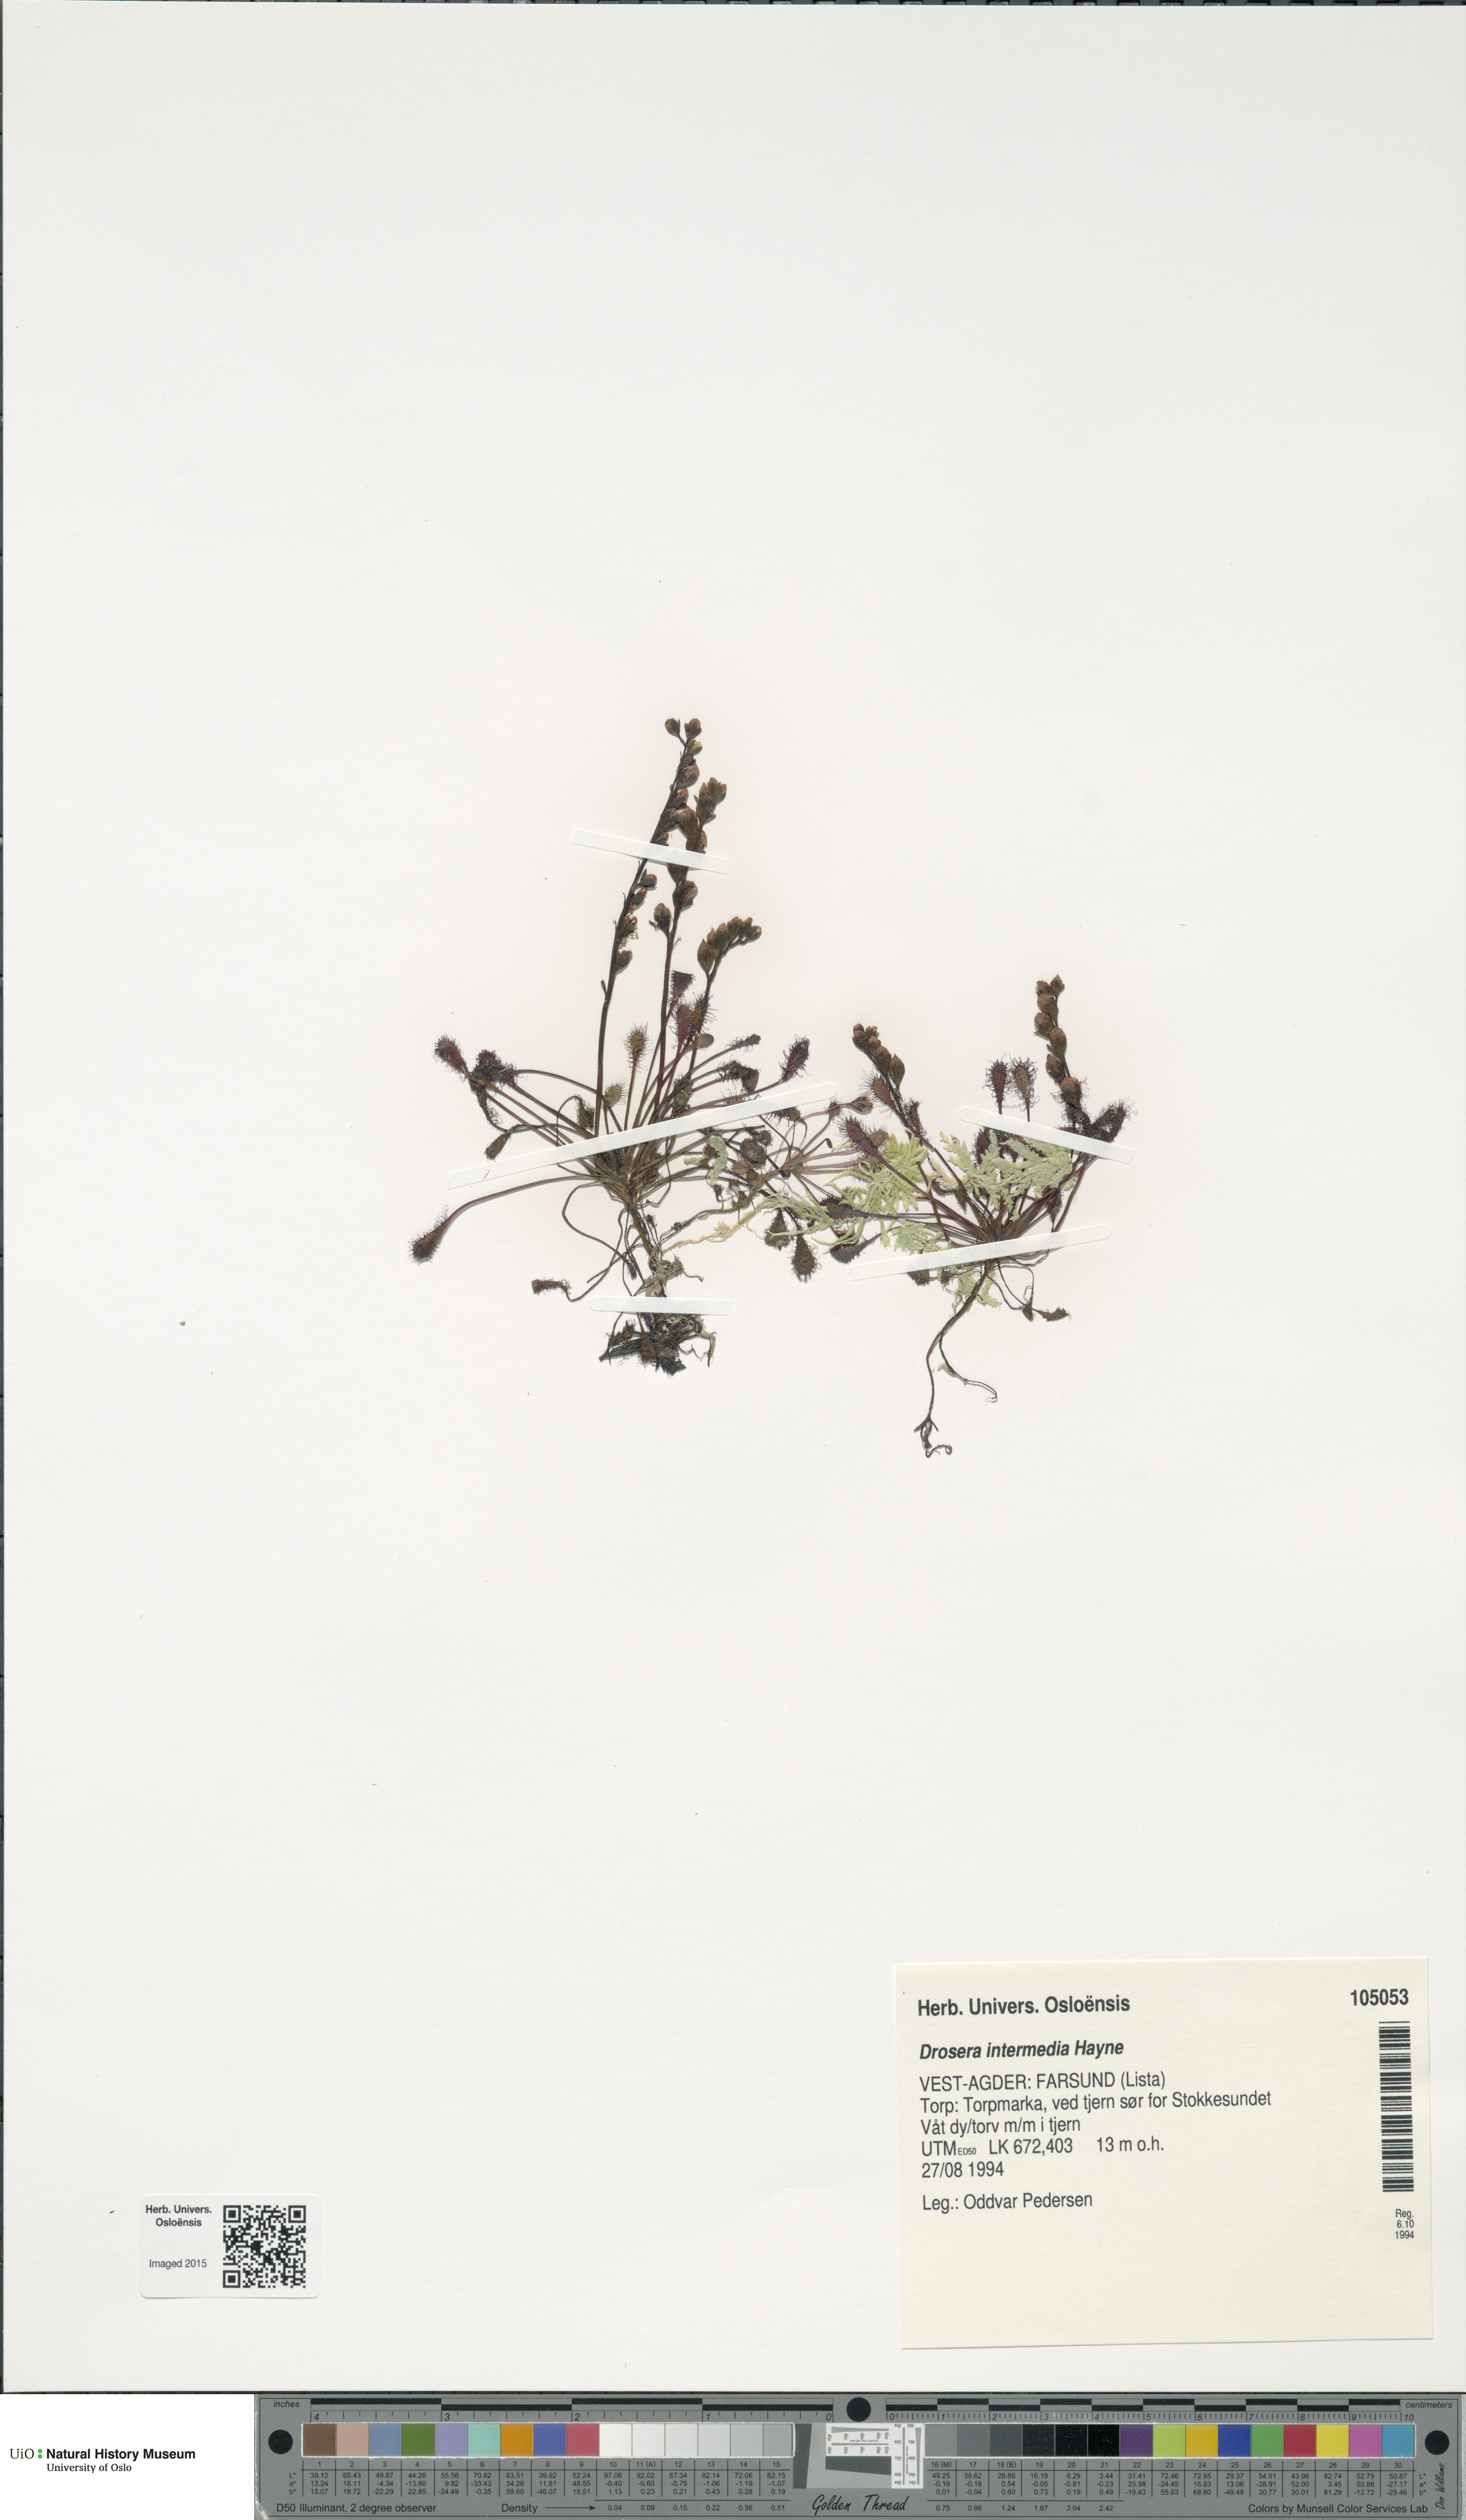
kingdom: Plantae
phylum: Tracheophyta
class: Magnoliopsida
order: Caryophyllales
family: Droseraceae
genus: Drosera
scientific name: Drosera intermedia
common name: Oblong-leaved sundew
